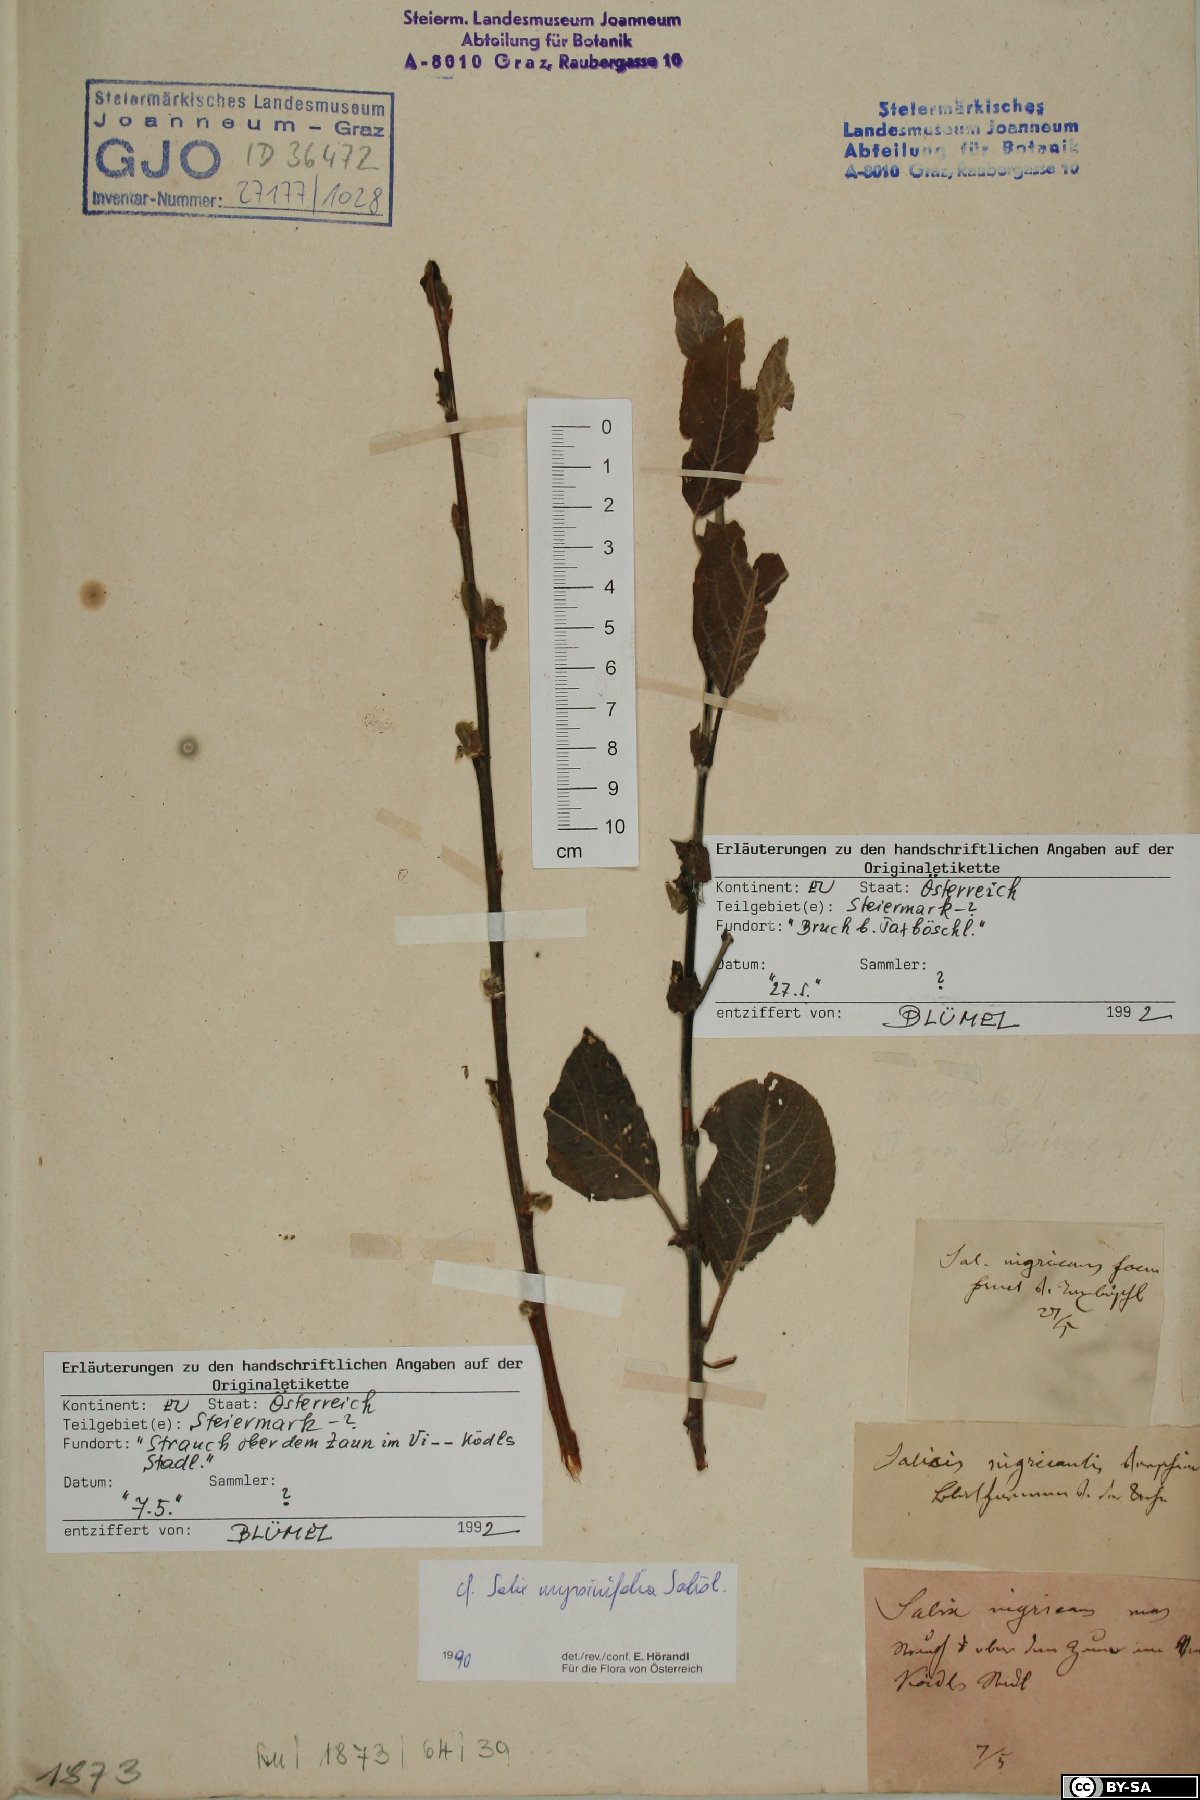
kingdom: Plantae
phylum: Tracheophyta
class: Magnoliopsida
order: Malpighiales
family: Salicaceae
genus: Salix
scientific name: Salix myrsinifolia
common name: Dark-leaved willow
